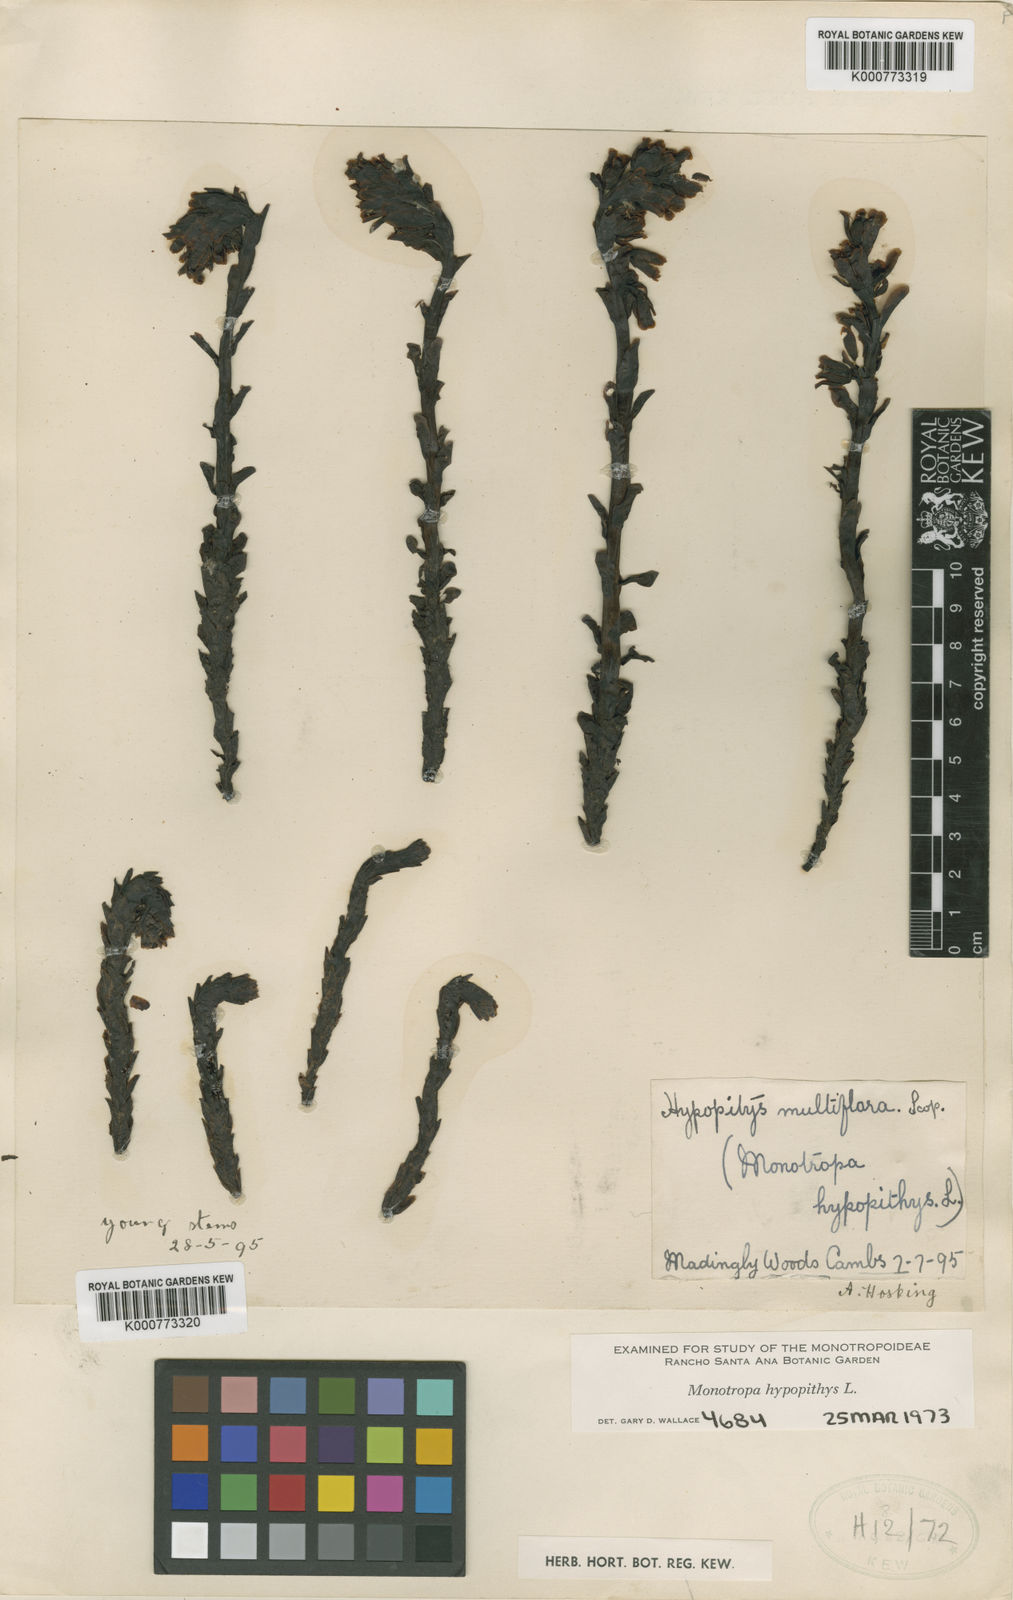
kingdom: Plantae
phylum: Tracheophyta
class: Magnoliopsida
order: Ericales
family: Ericaceae
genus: Monotropa
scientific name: Monotropa
